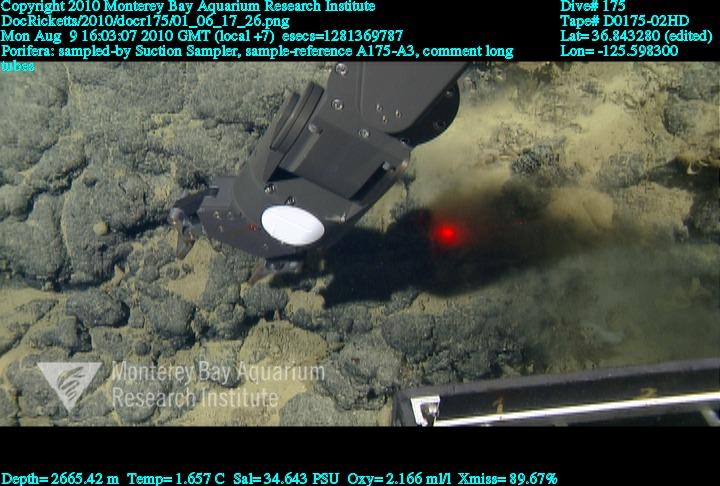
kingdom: Animalia
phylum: Porifera
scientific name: Porifera
